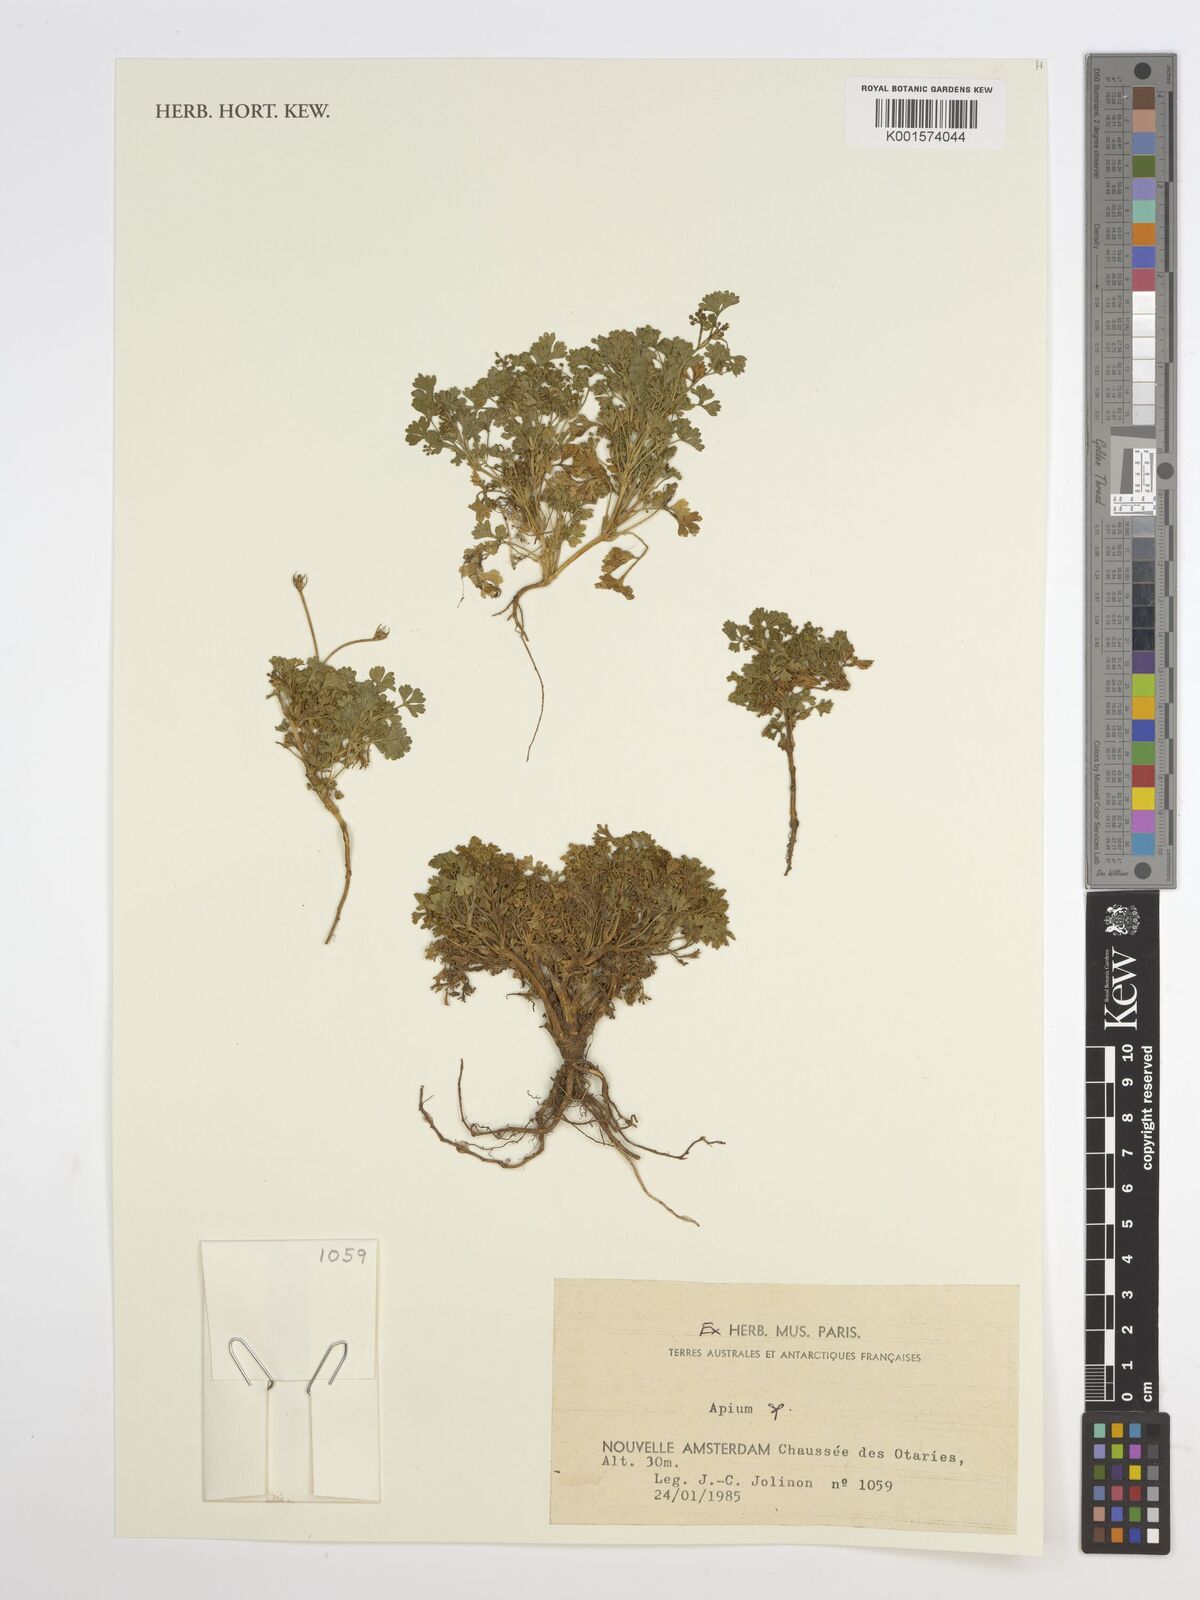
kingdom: Plantae
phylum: Tracheophyta
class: Magnoliopsida
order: Apiales
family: Apiaceae
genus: Apium
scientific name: Apium
